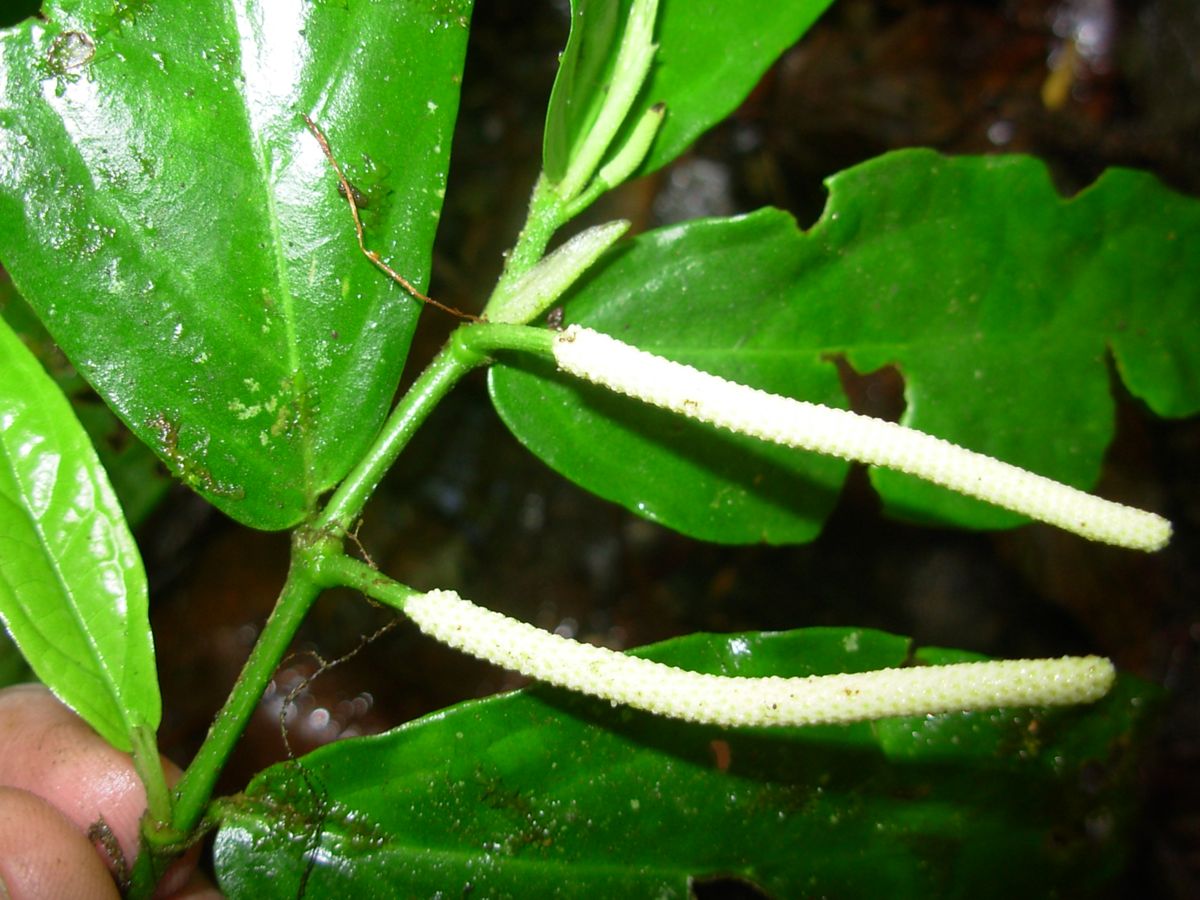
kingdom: Plantae
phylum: Tracheophyta
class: Magnoliopsida
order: Piperales
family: Piperaceae
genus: Piper
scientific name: Piper
